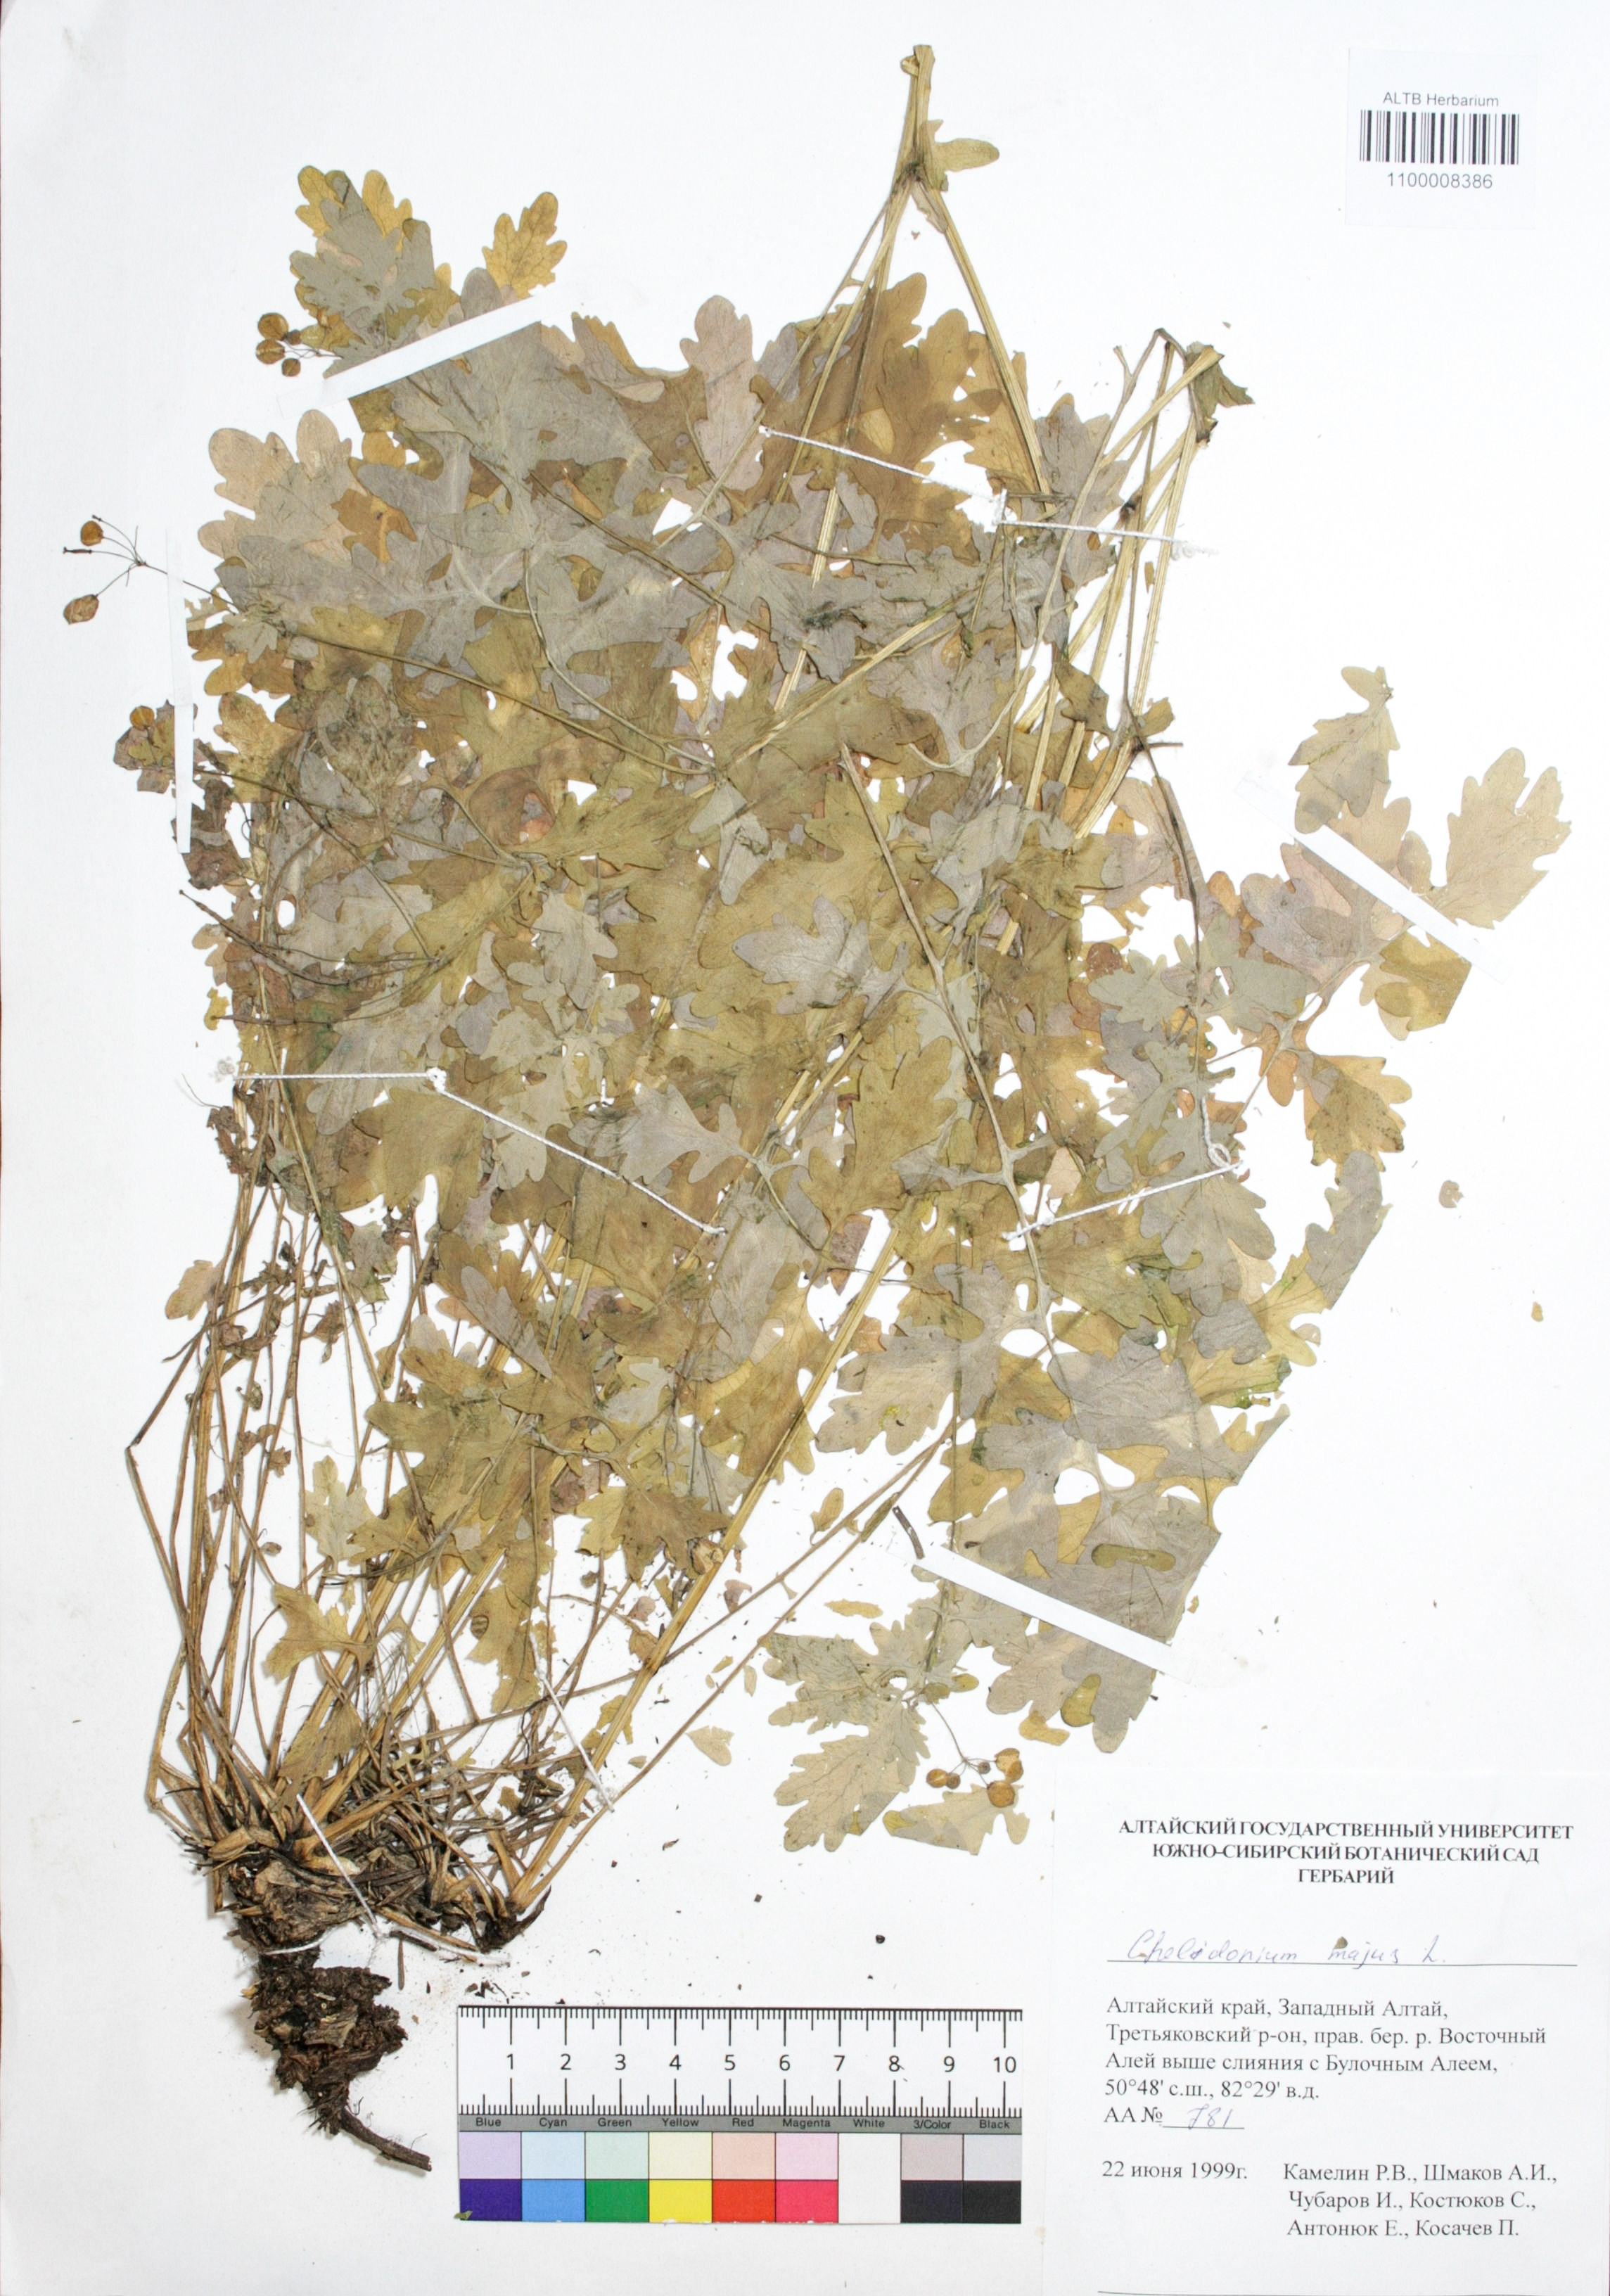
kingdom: Plantae
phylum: Tracheophyta
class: Magnoliopsida
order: Ranunculales
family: Papaveraceae
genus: Chelidonium
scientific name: Chelidonium majus
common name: Greater celandine
